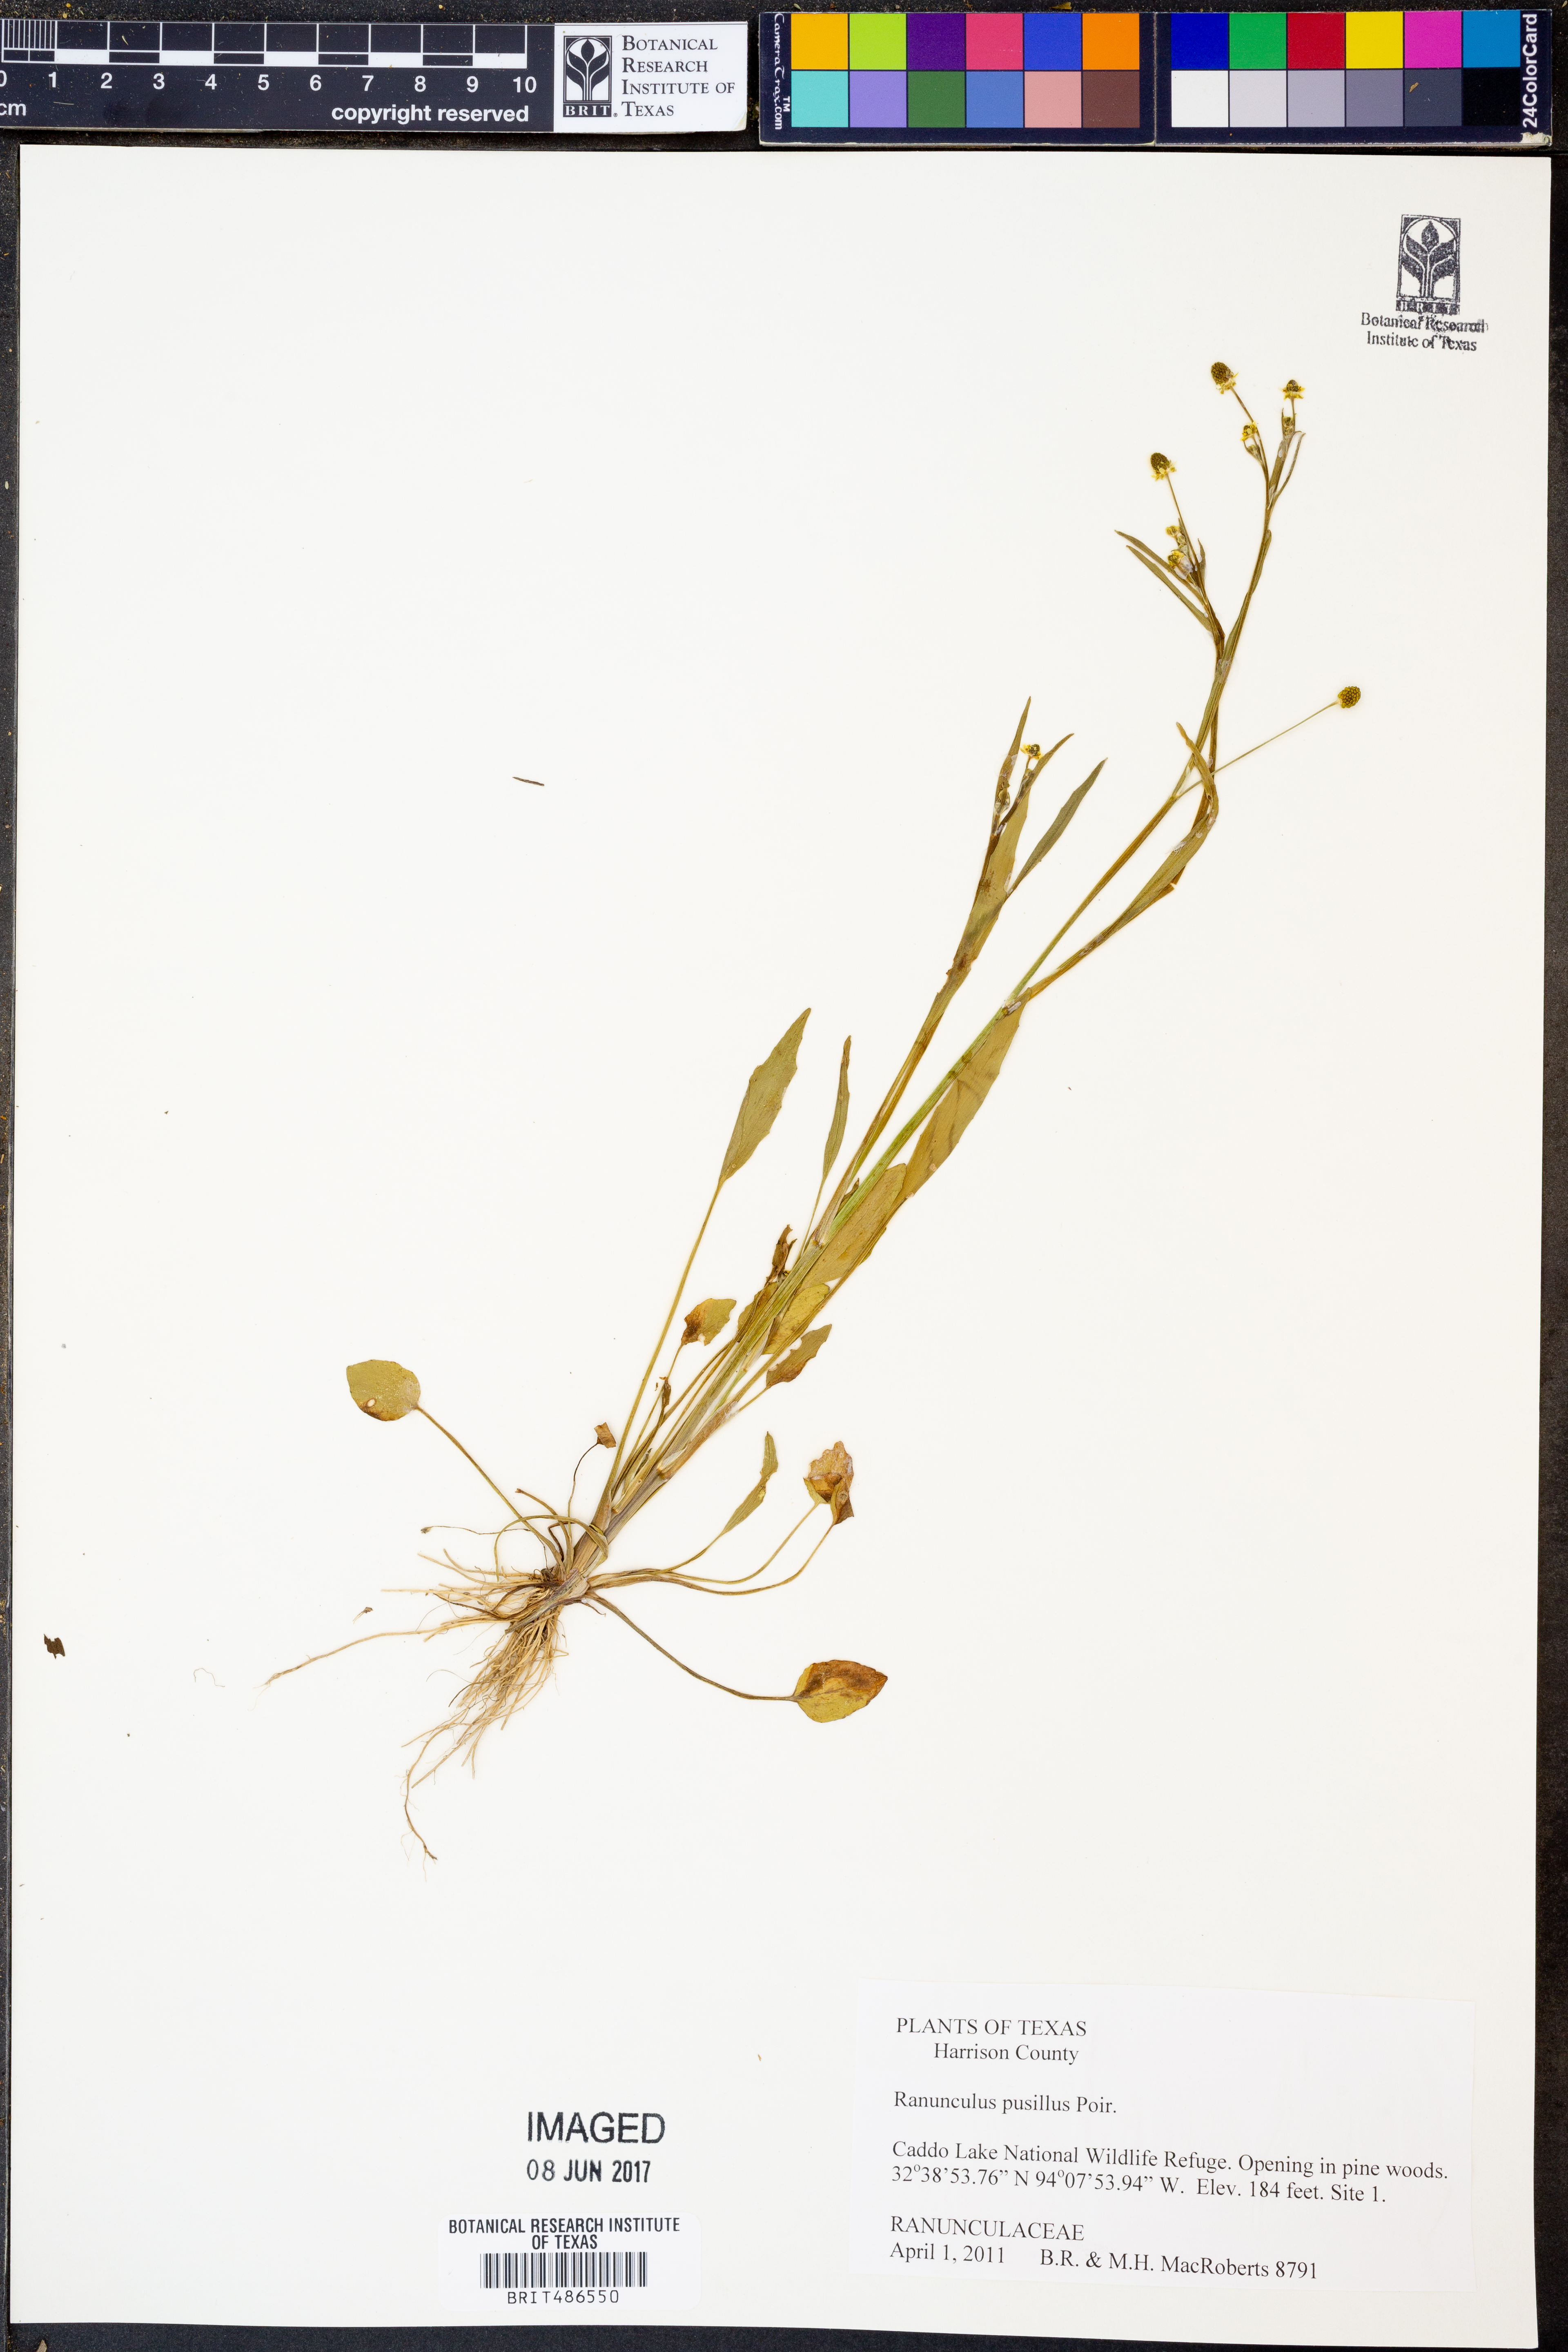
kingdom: Plantae
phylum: Tracheophyta
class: Magnoliopsida
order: Ranunculales
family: Ranunculaceae
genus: Ranunculus
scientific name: Ranunculus pusillus
